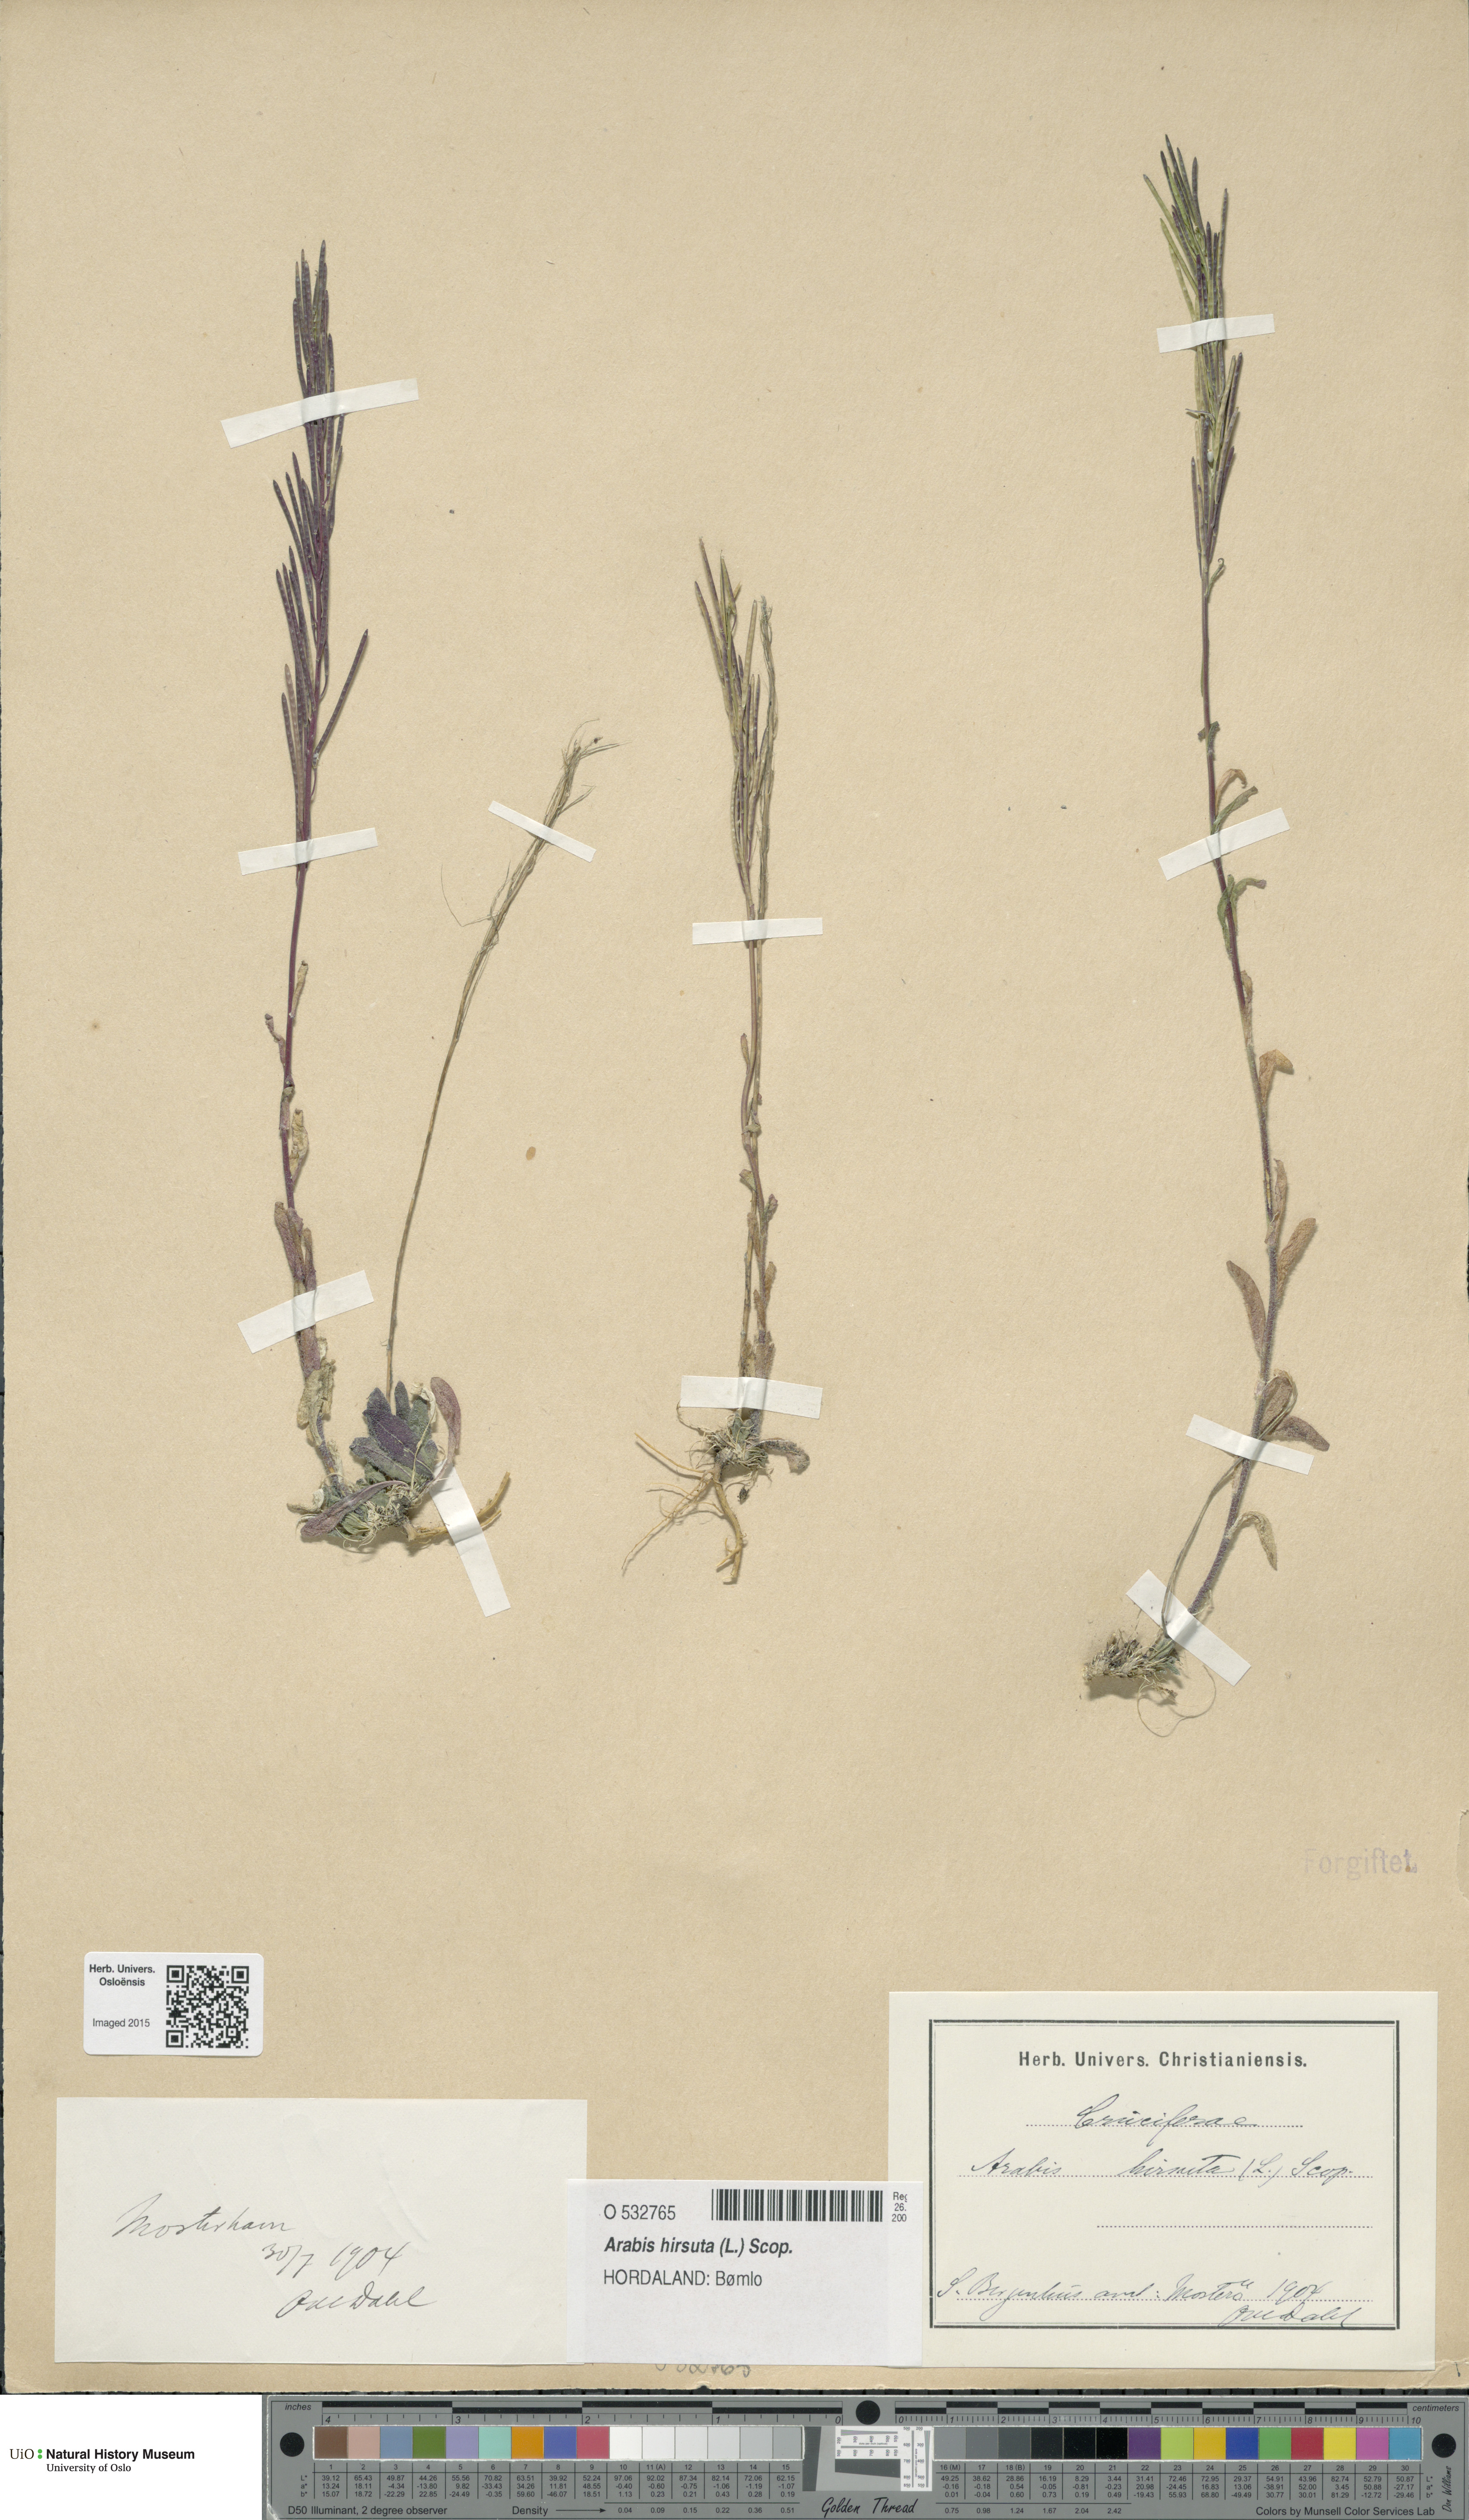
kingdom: Plantae
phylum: Tracheophyta
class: Magnoliopsida
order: Brassicales
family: Brassicaceae
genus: Arabis
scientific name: Arabis hirsuta
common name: Hairy rock-cress
